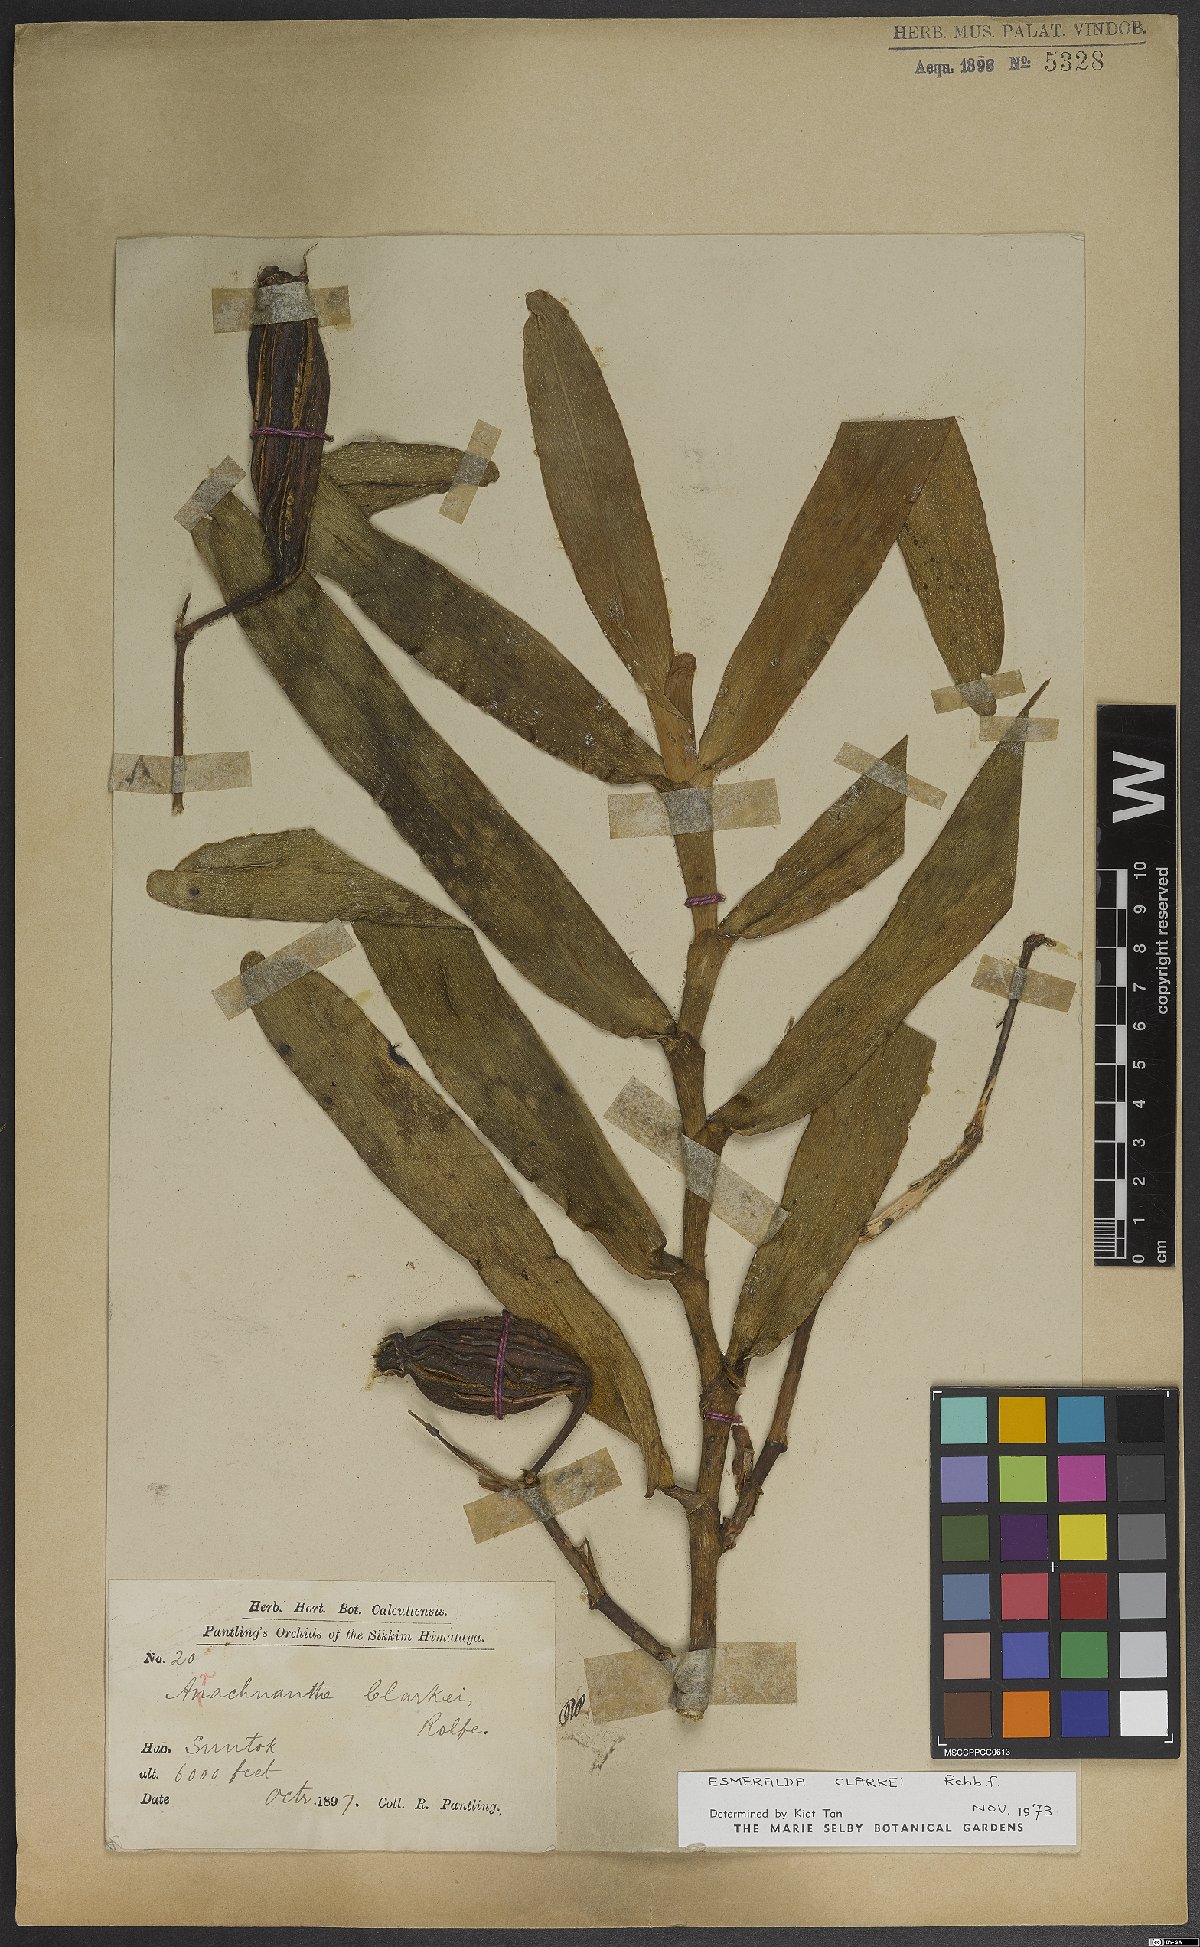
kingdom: Plantae
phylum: Tracheophyta
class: Liliopsida
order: Asparagales
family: Orchidaceae
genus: Arachnis
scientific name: Arachnis
